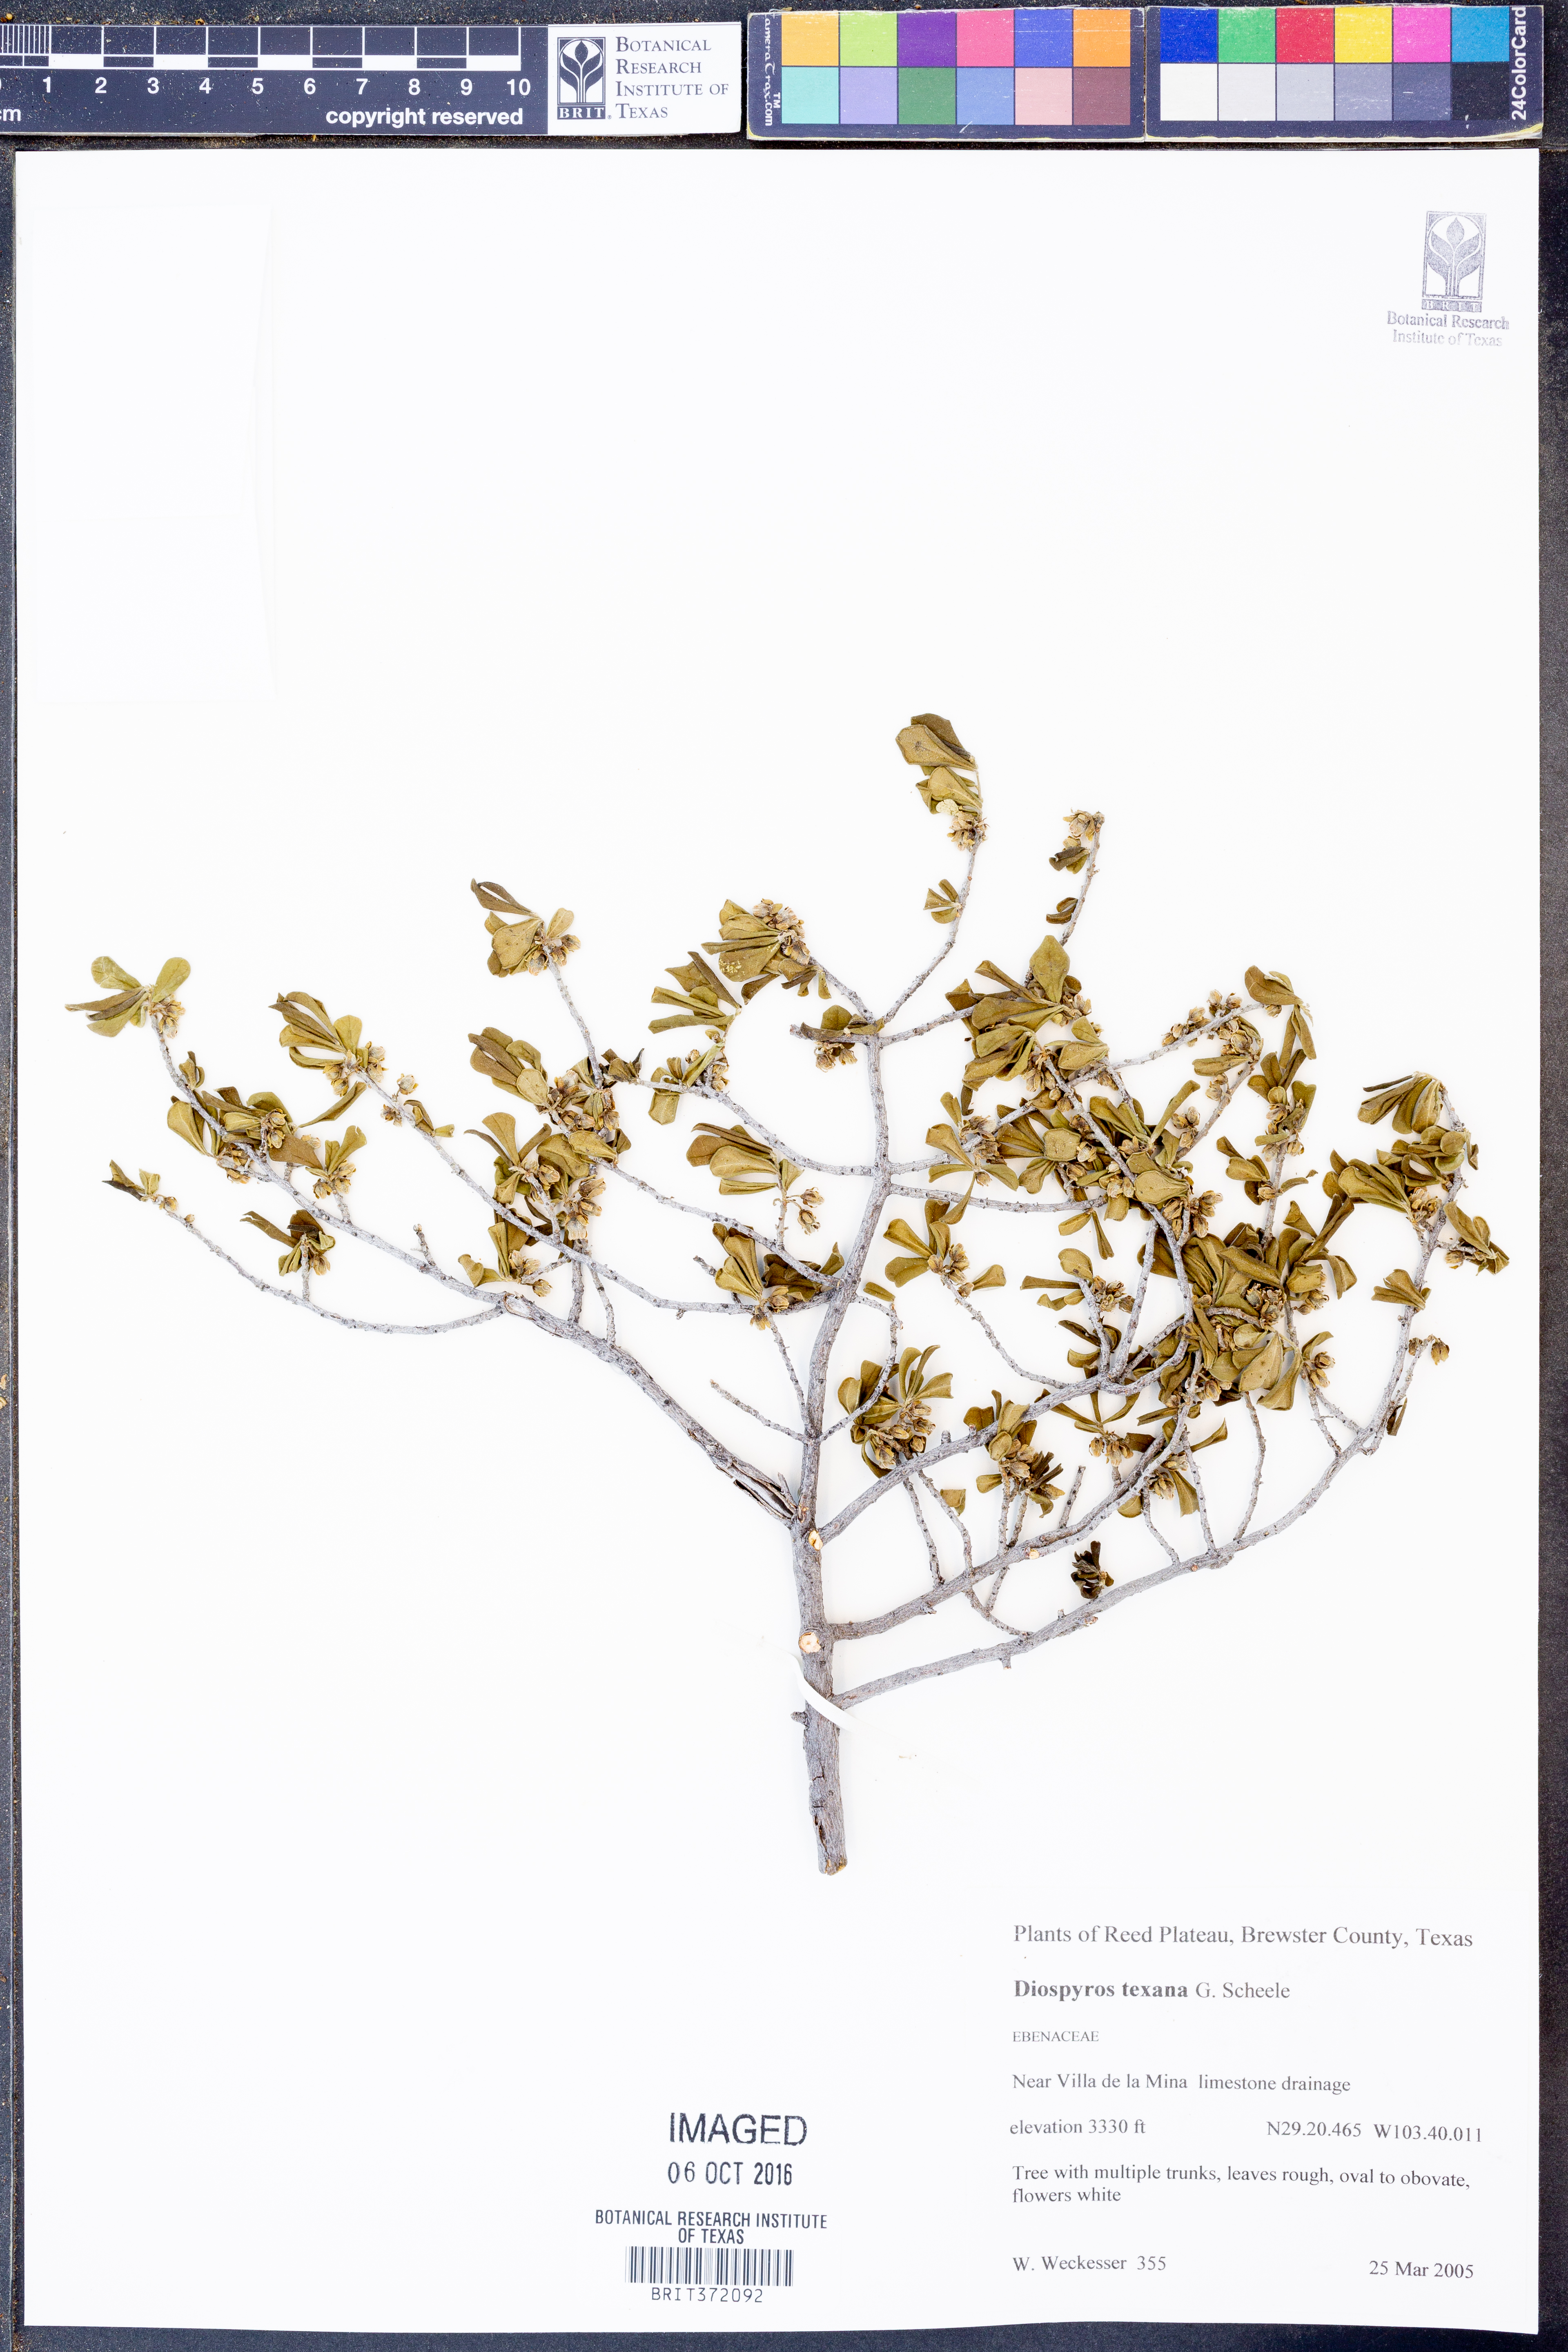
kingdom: Plantae
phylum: Tracheophyta
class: Magnoliopsida
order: Ericales
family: Ebenaceae
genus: Diospyros
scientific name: Diospyros texana
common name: Texas persimmon
